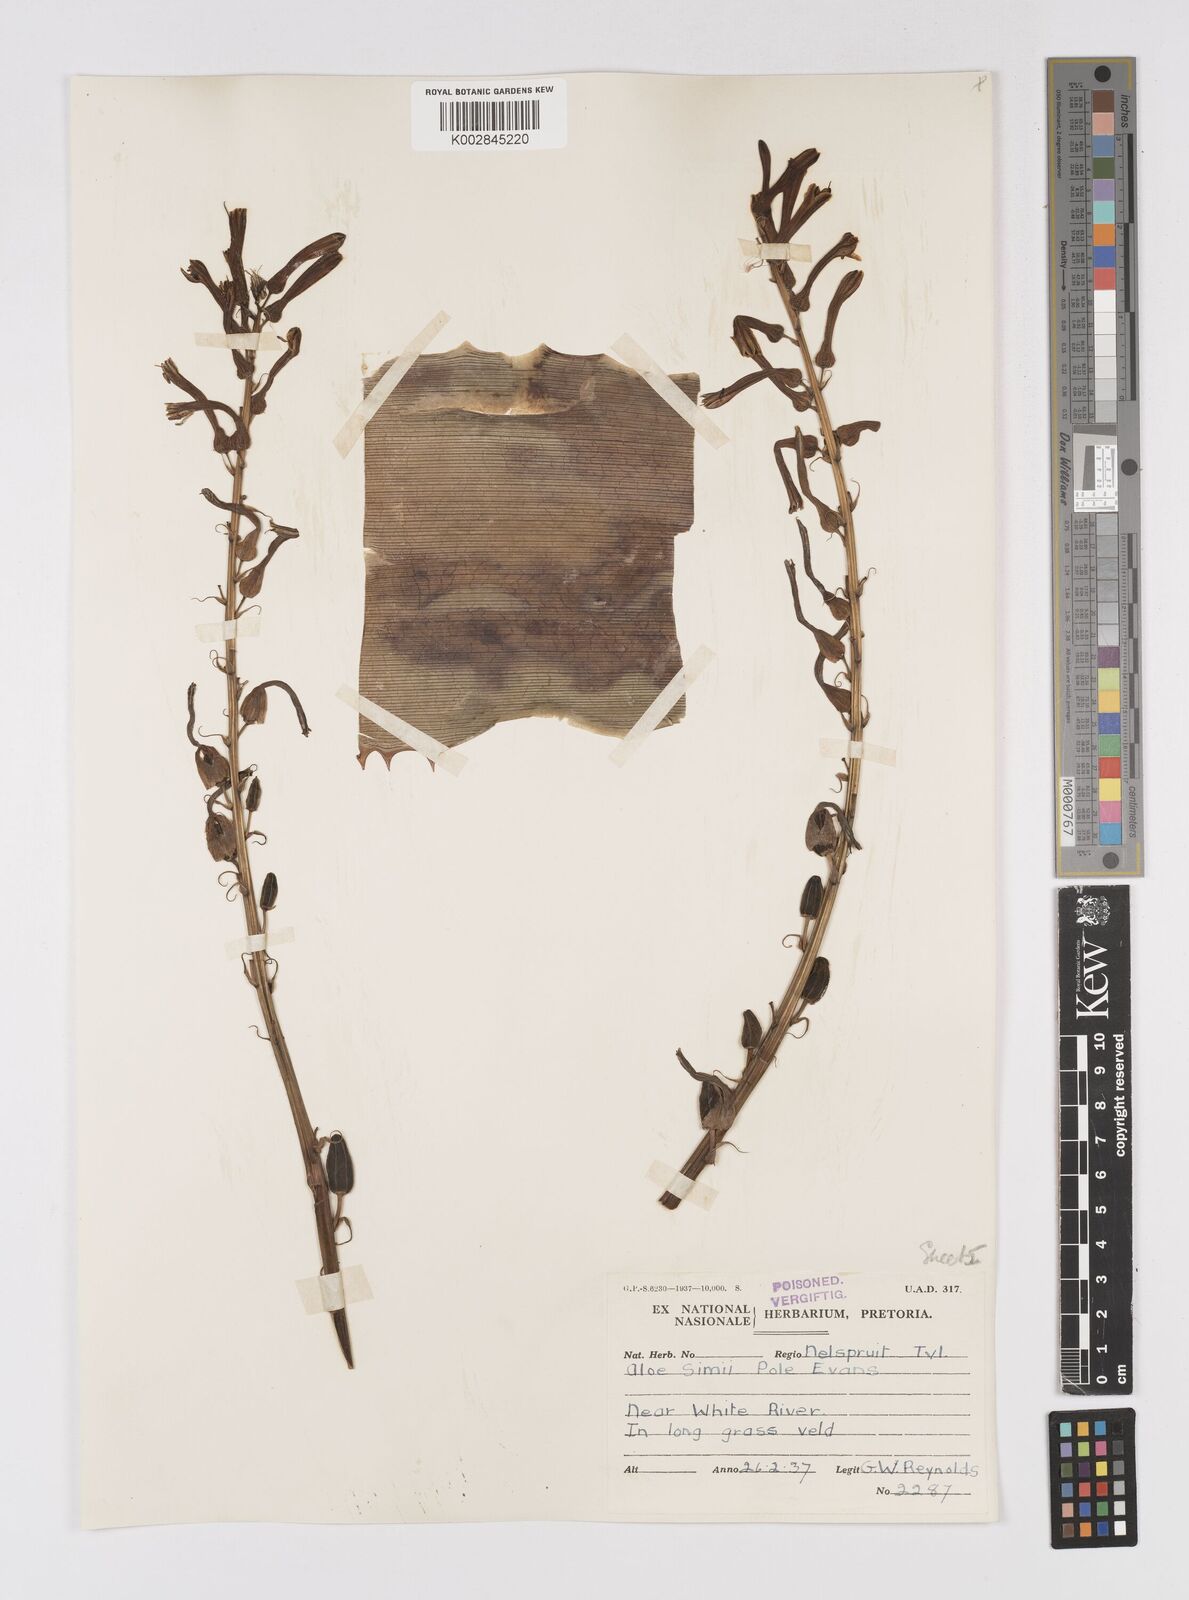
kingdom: Plantae
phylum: Tracheophyta
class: Liliopsida
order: Asparagales
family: Asphodelaceae
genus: Aloe
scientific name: Aloe simii
